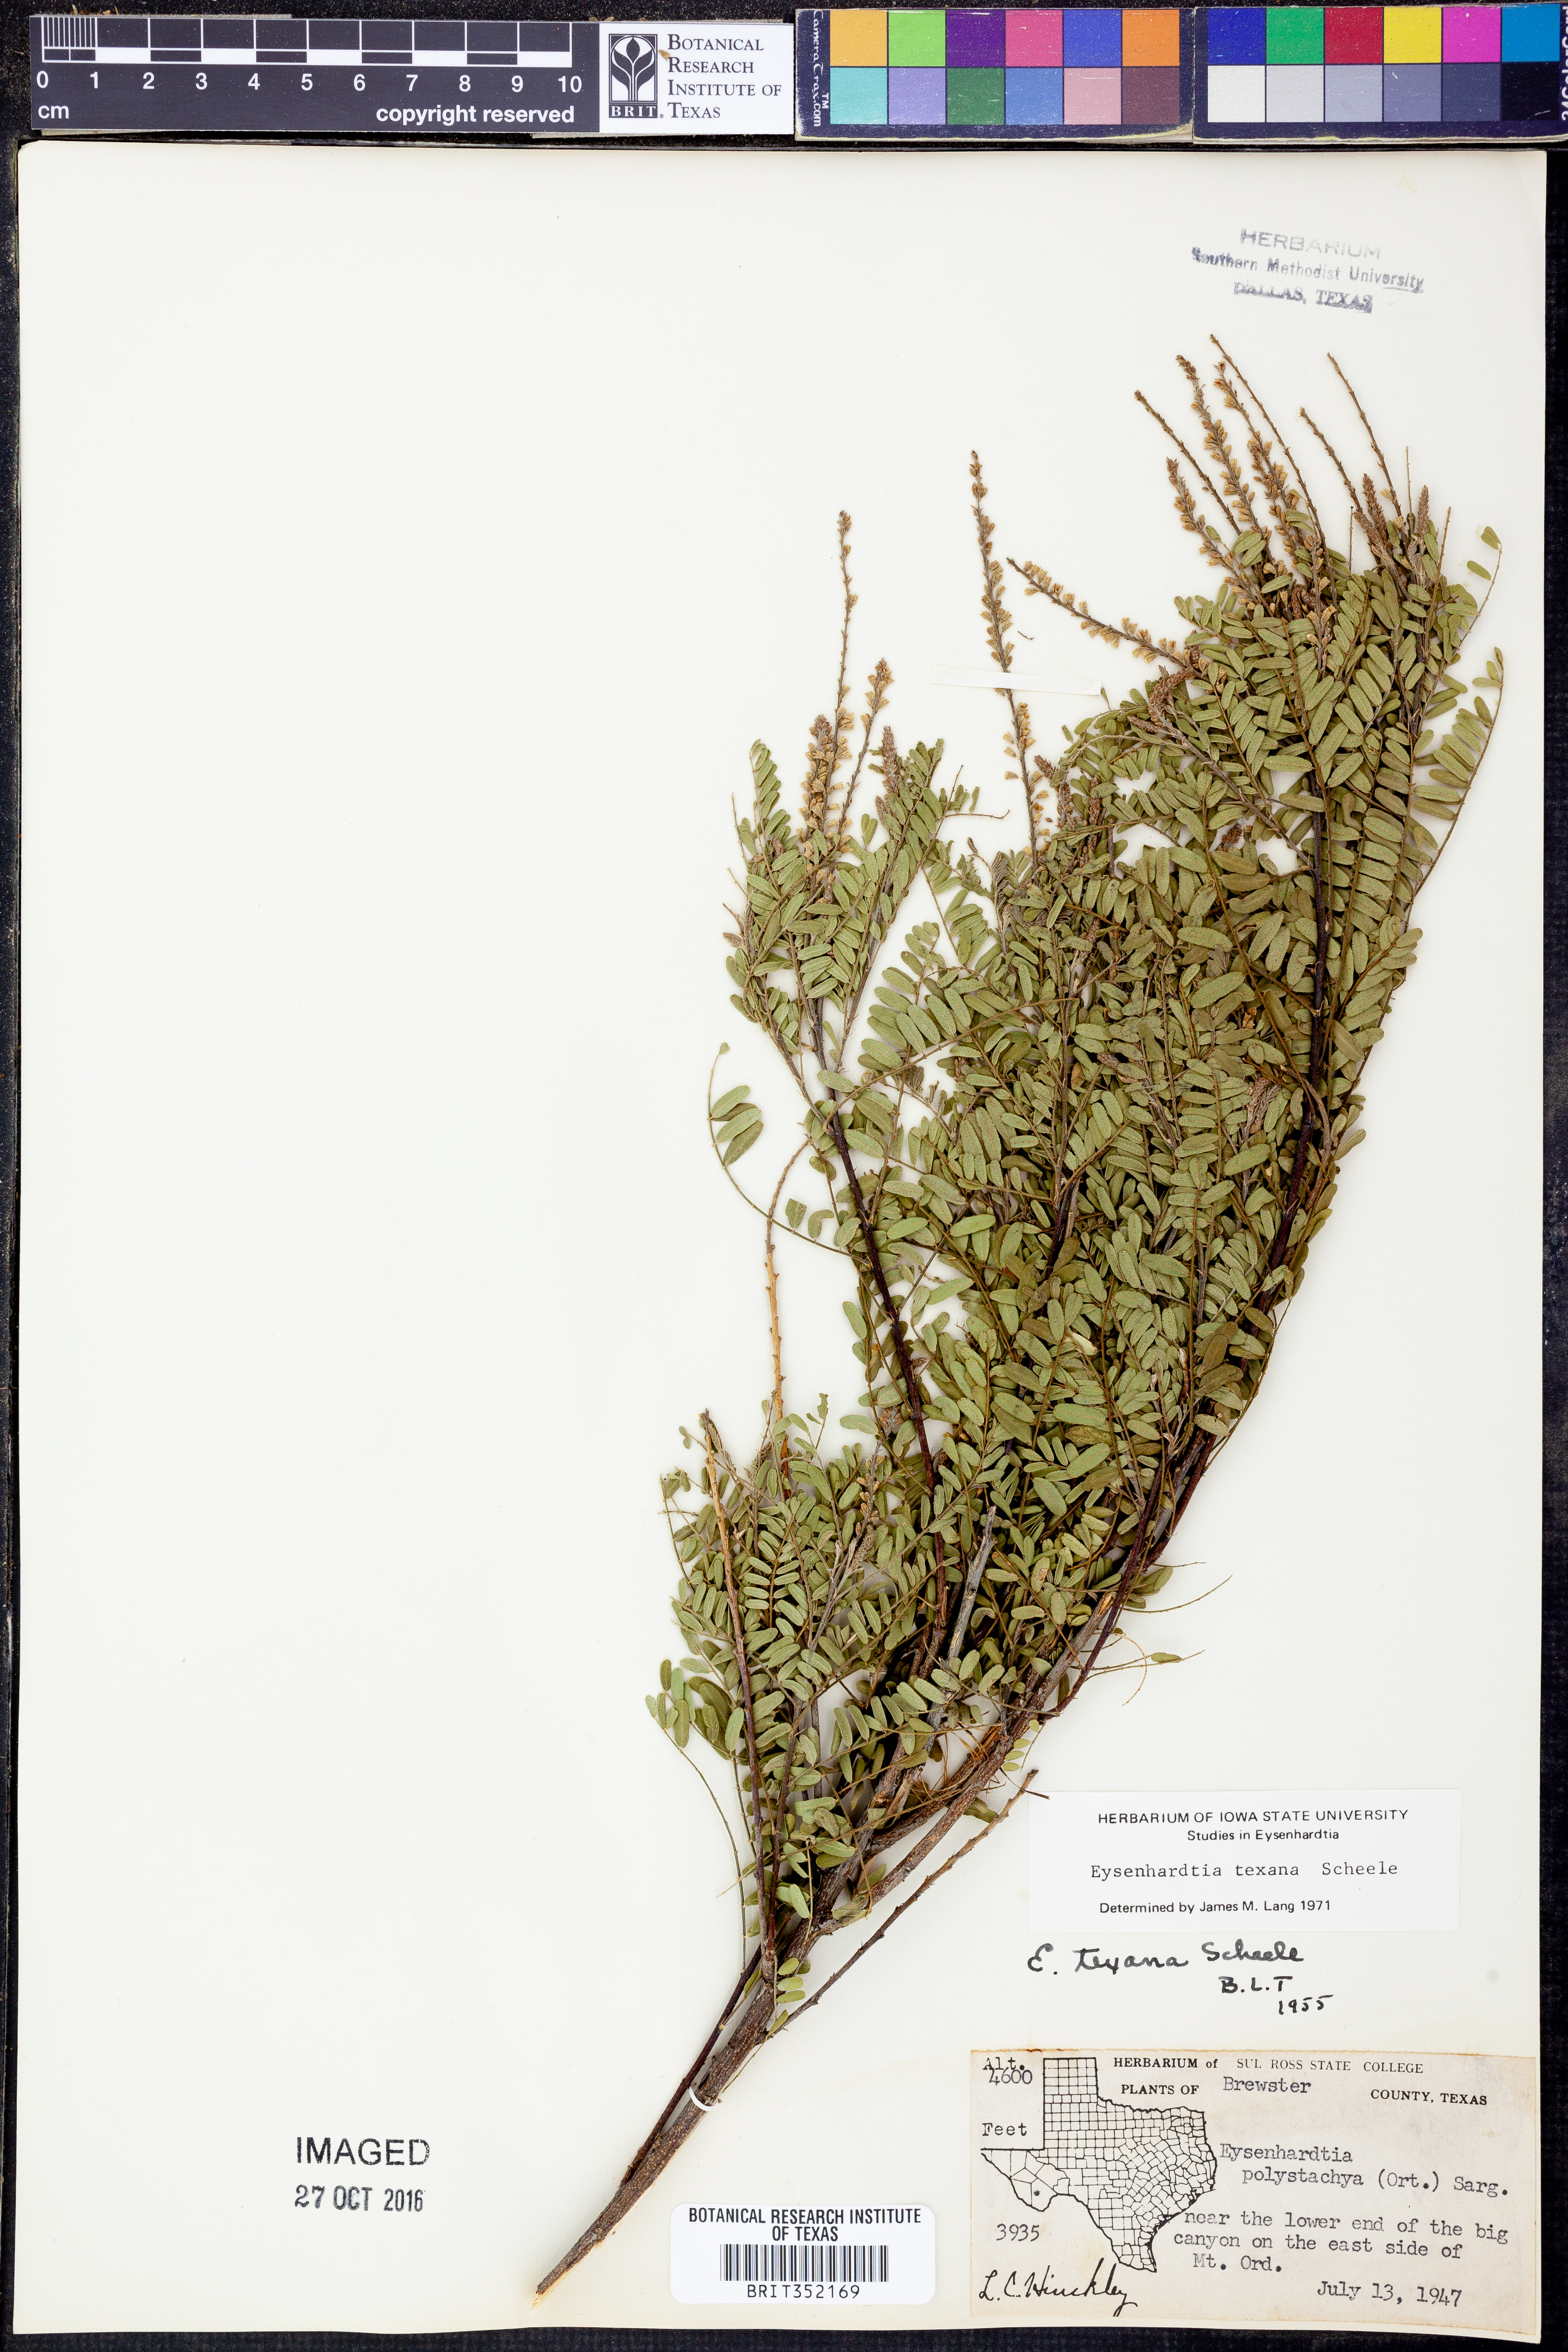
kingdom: Plantae
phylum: Tracheophyta
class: Magnoliopsida
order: Fabales
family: Fabaceae
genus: Eysenhardtia
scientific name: Eysenhardtia texana
